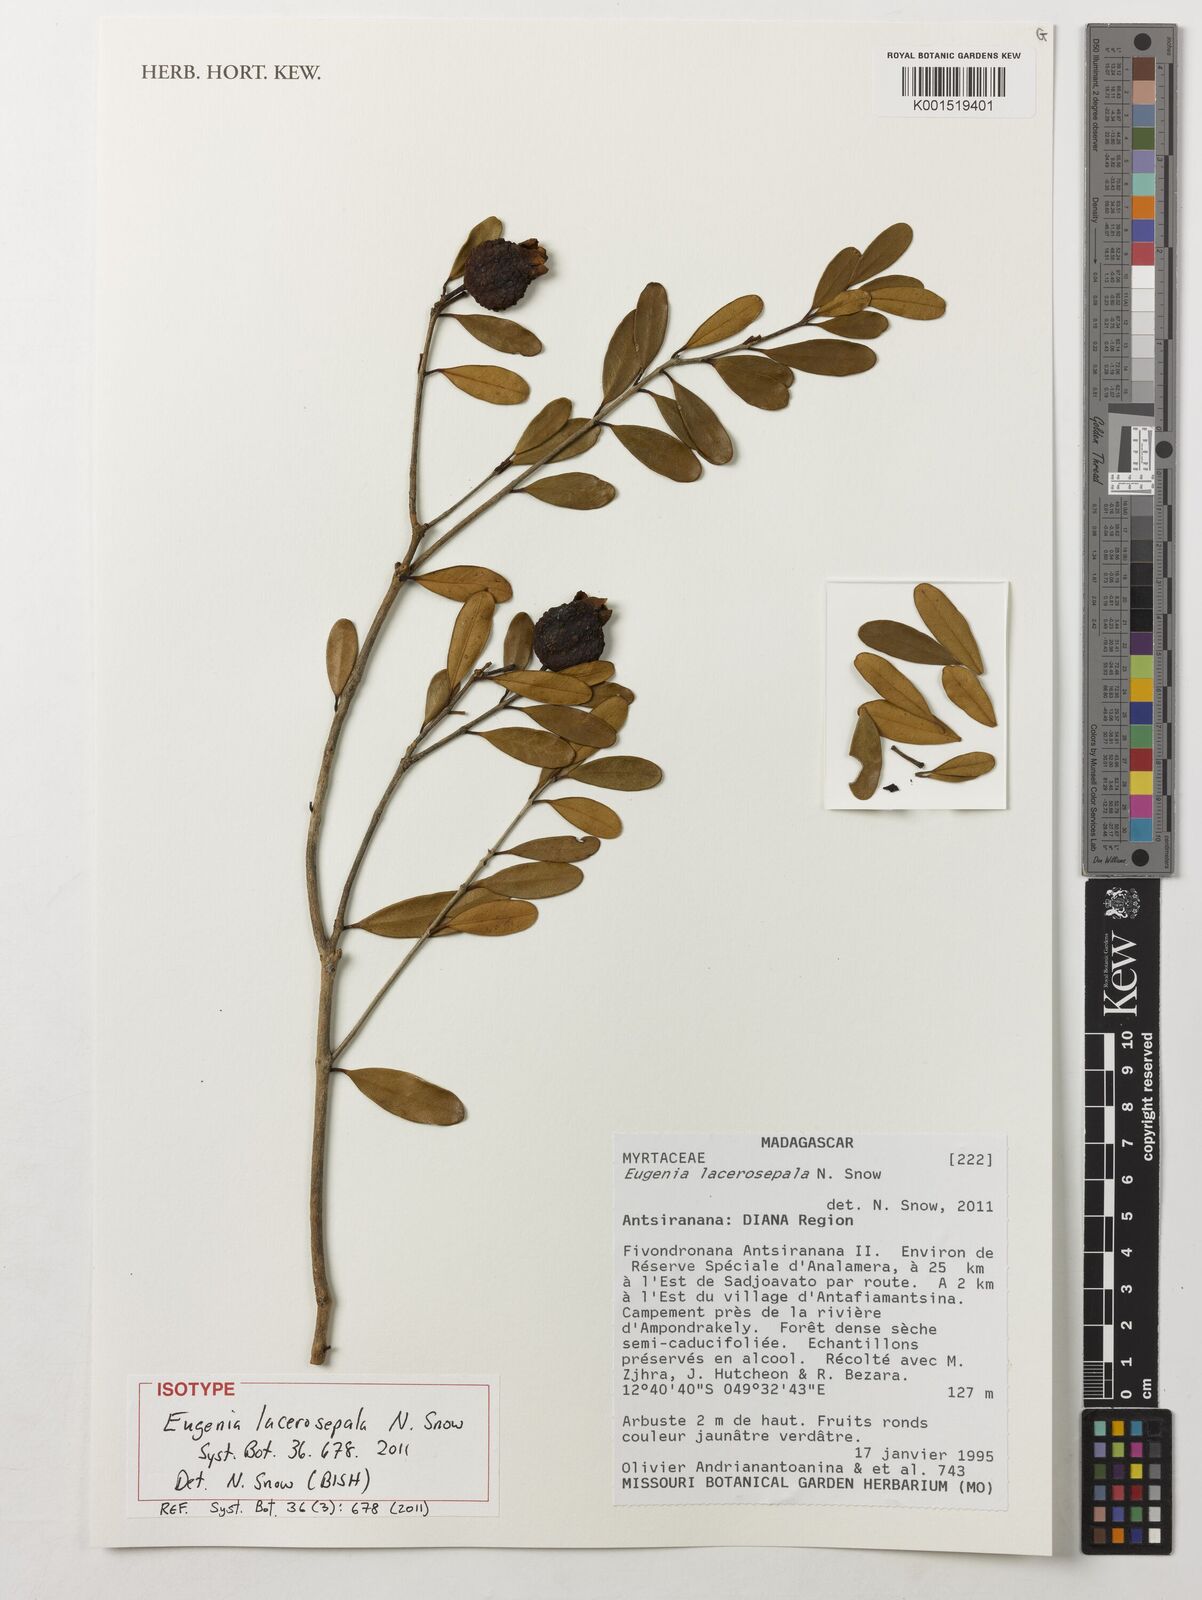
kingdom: Plantae
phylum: Tracheophyta
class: Magnoliopsida
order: Myrtales
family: Myrtaceae
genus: Eugenia
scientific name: Eugenia lacerosepala
